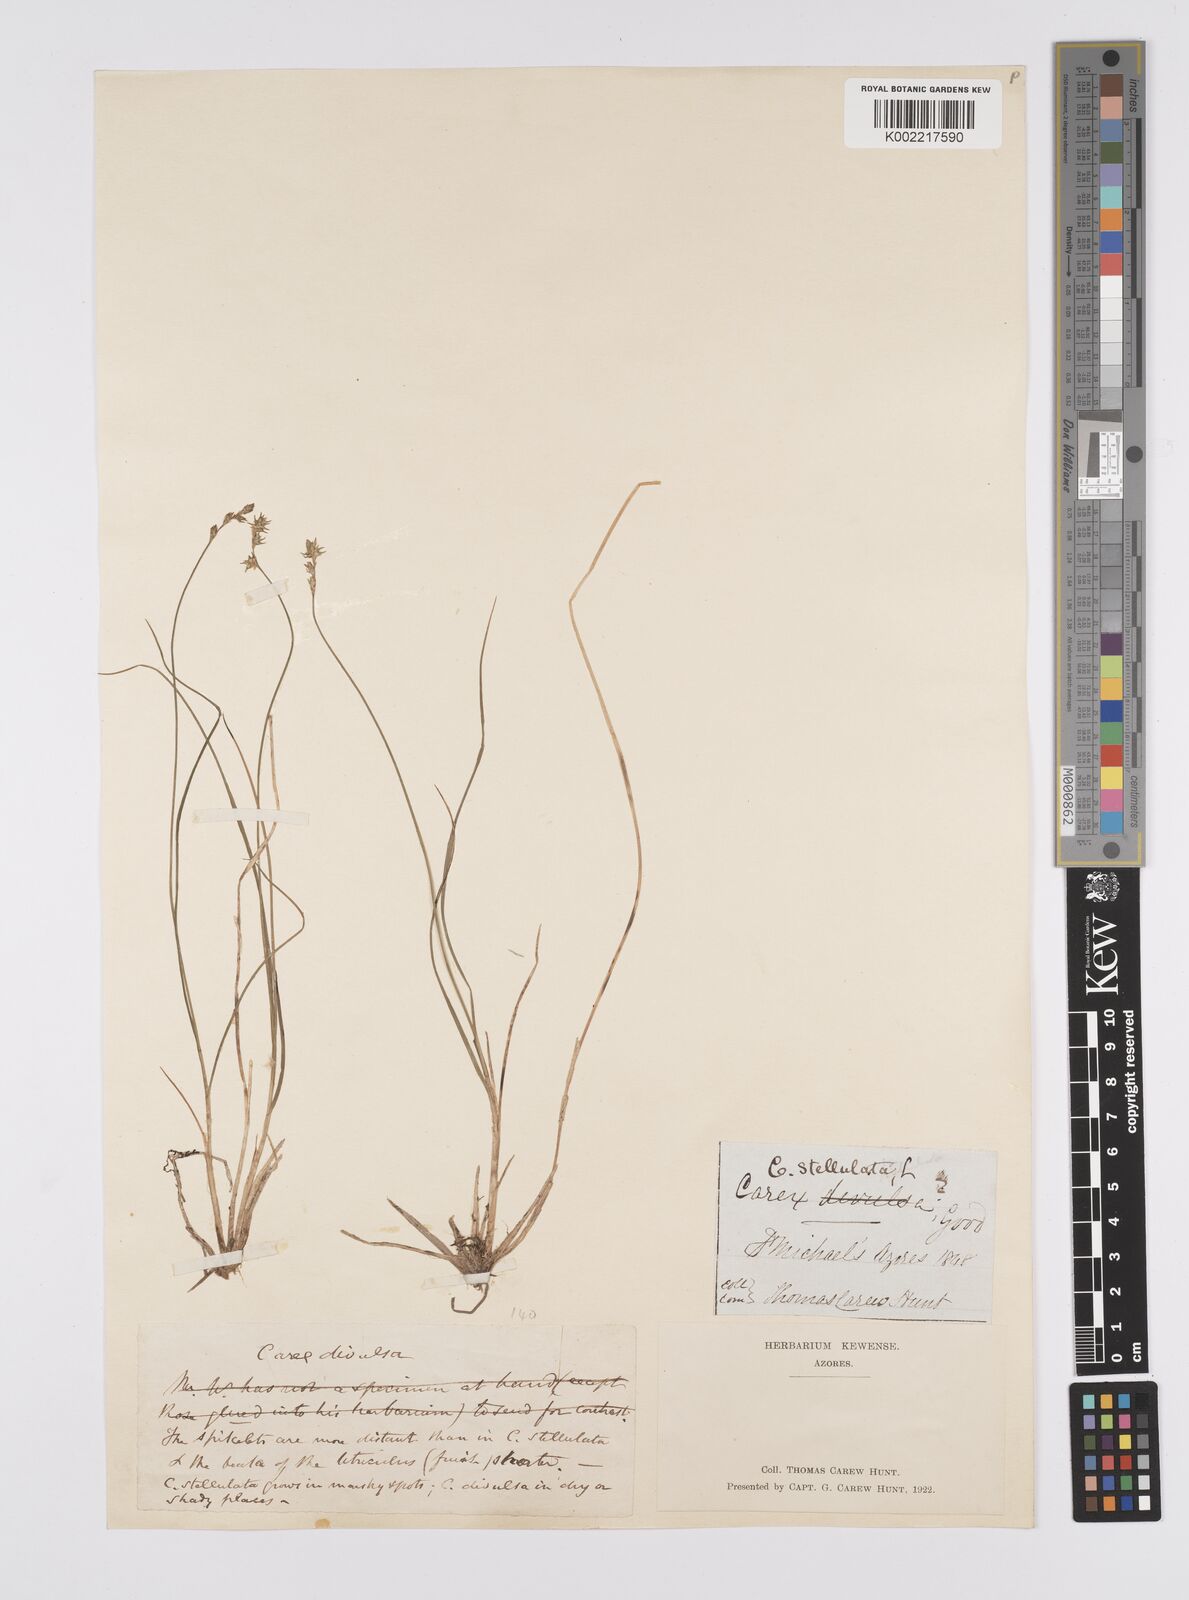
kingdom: Plantae
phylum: Tracheophyta
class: Liliopsida
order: Poales
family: Cyperaceae
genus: Carex
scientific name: Carex echinata
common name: Star sedge
